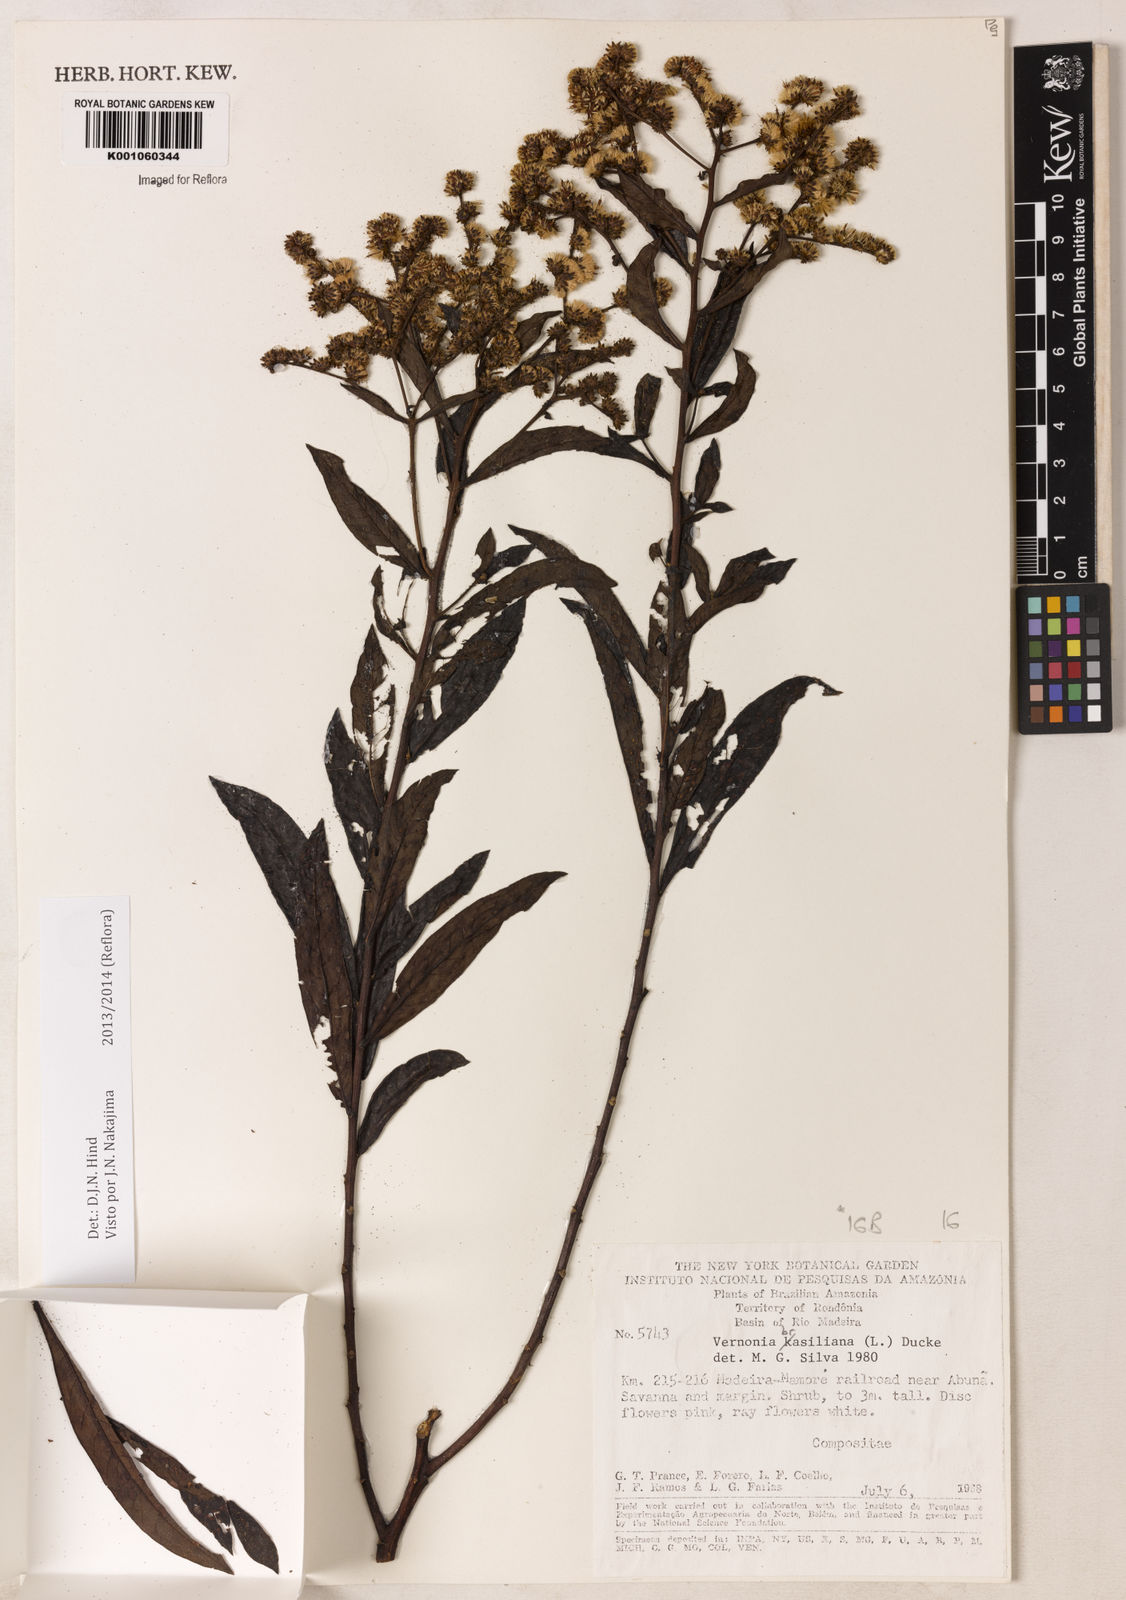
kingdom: Plantae
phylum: Tracheophyta
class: Magnoliopsida
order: Asterales
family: Asteraceae
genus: Vernonanthura
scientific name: Vernonanthura brasiliana
